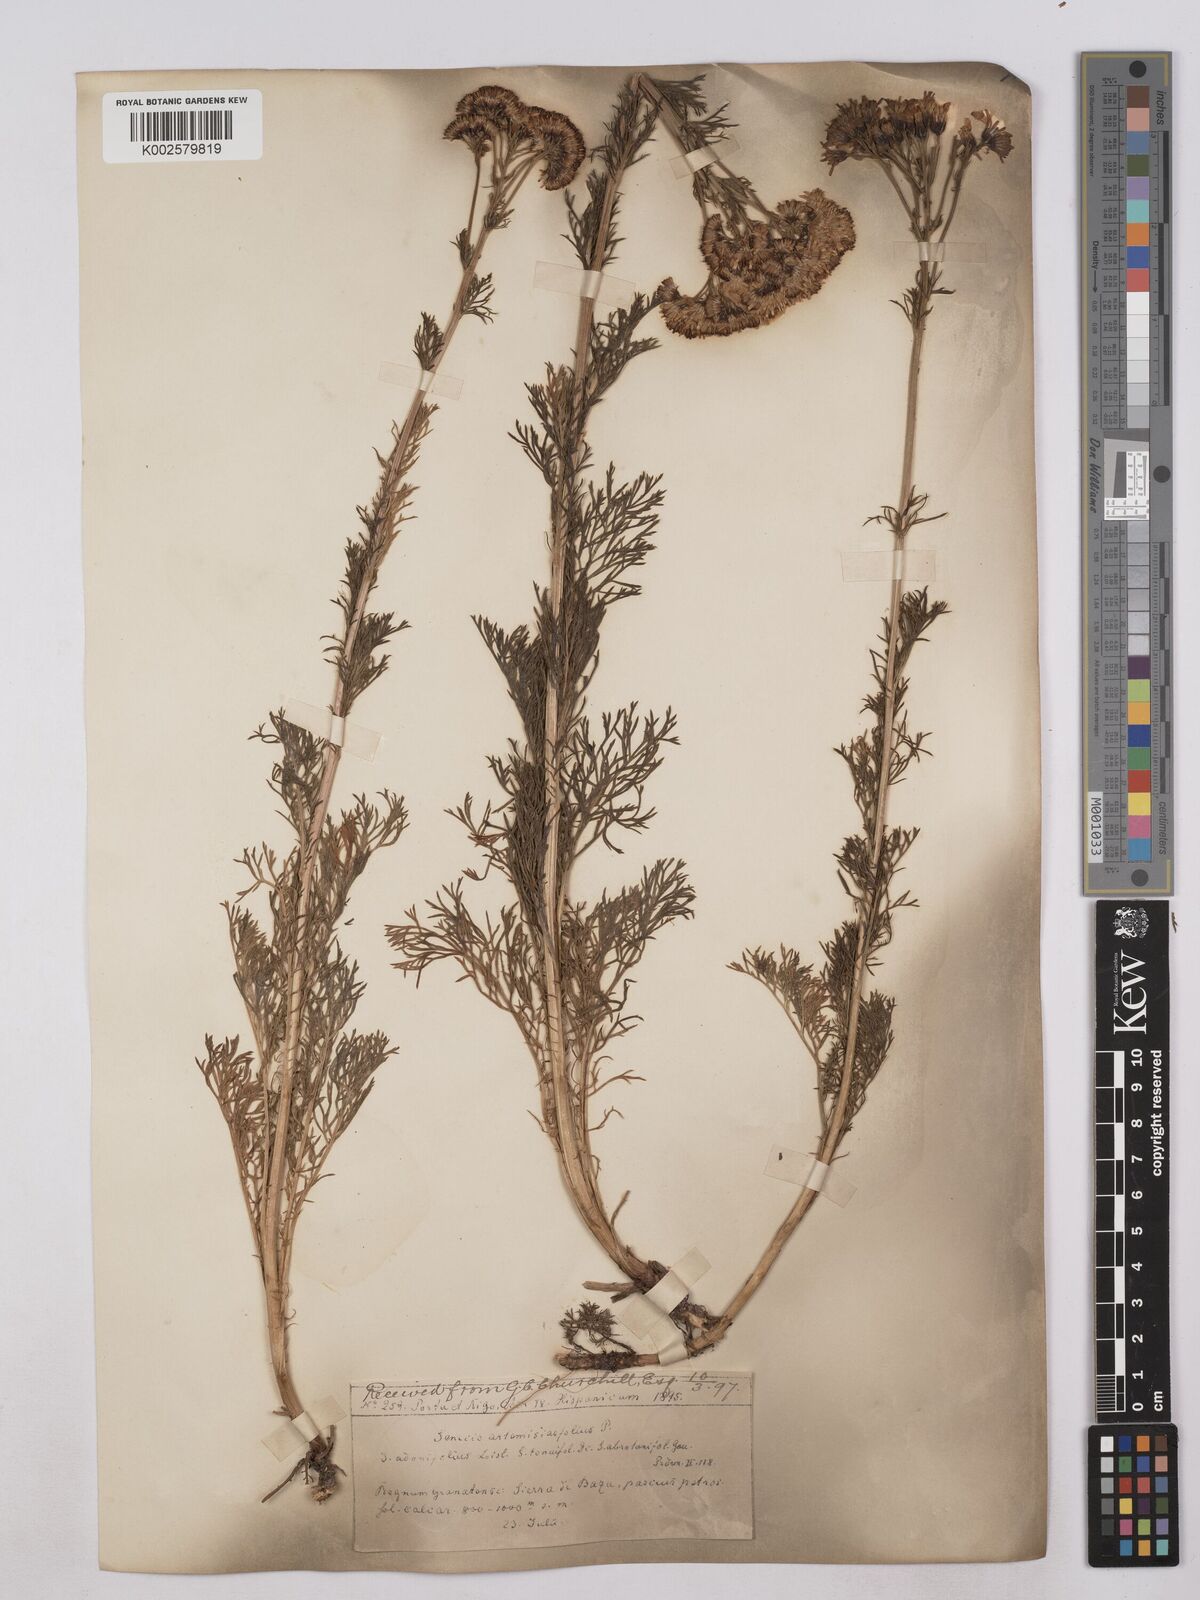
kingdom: Plantae
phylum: Tracheophyta
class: Magnoliopsida
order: Asterales
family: Asteraceae
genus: Jacobaea
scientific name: Jacobaea adonidifolia
